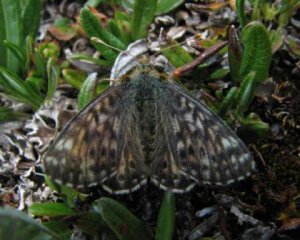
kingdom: Animalia
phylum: Arthropoda
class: Insecta
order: Lepidoptera
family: Nymphalidae
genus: Boloria
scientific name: Boloria alaskensis
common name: Alaskan Fritillary
